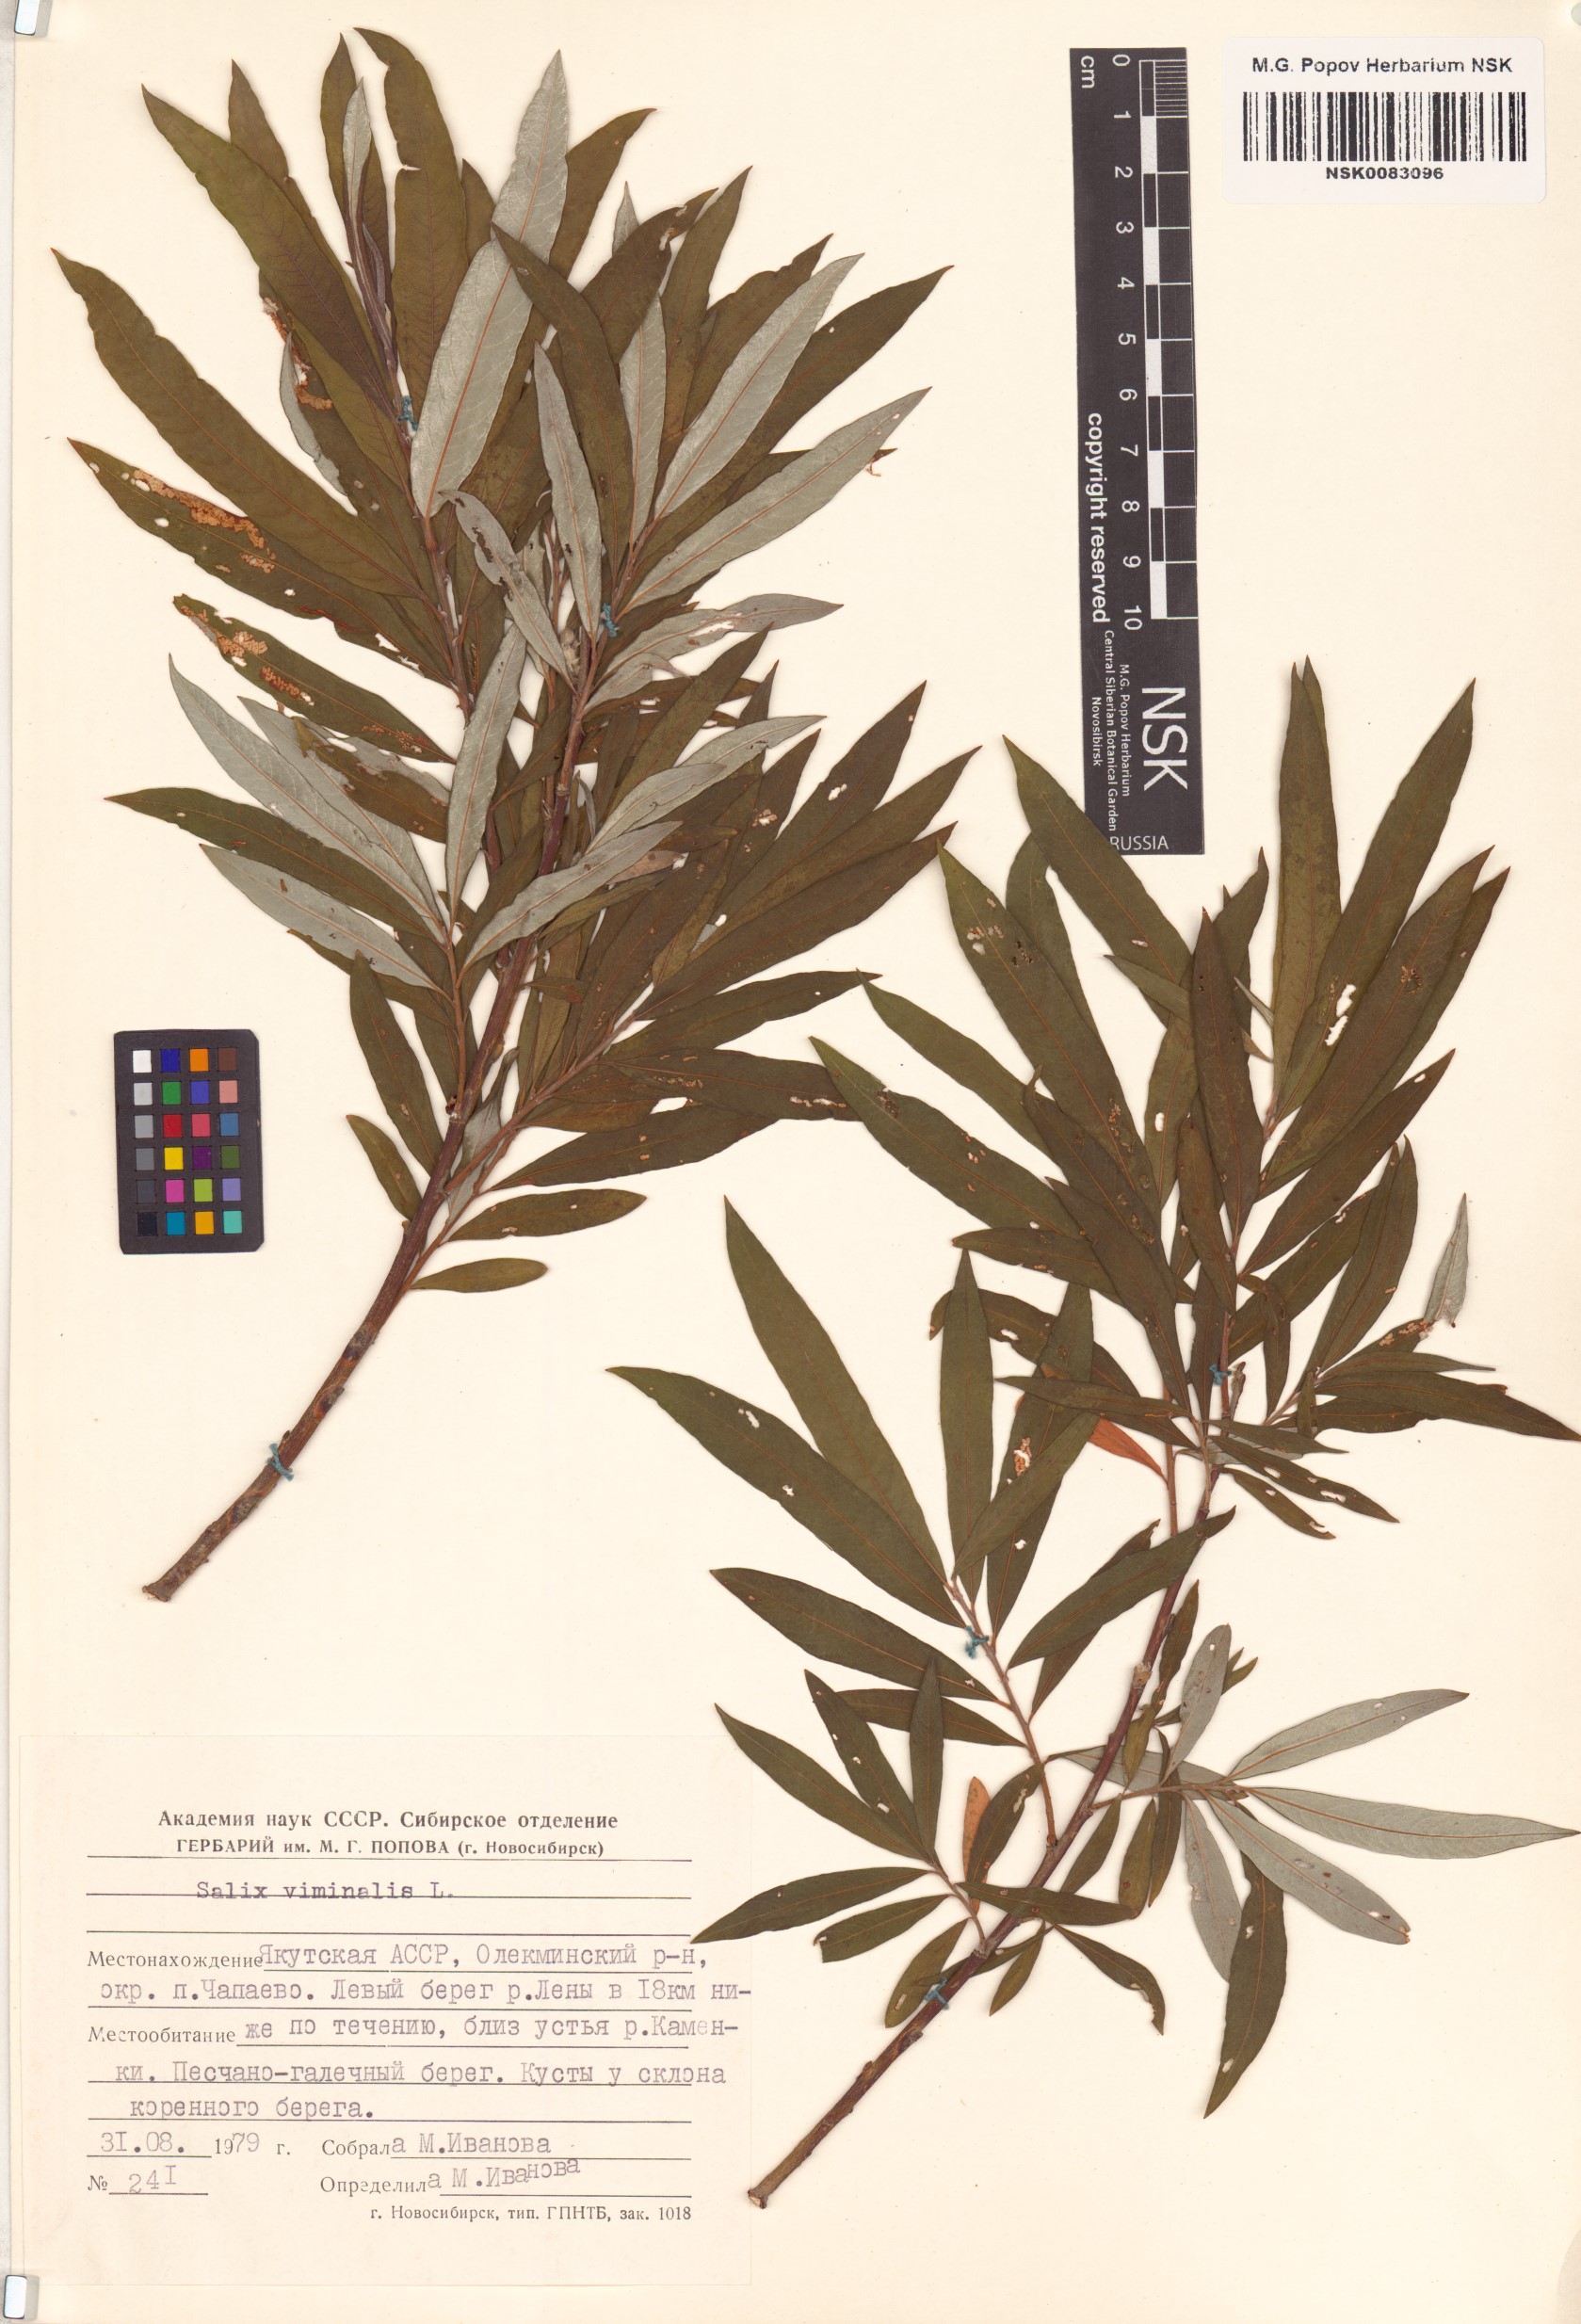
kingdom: Plantae
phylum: Tracheophyta
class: Magnoliopsida
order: Malpighiales
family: Salicaceae
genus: Salix
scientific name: Salix viminalis
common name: Osier
